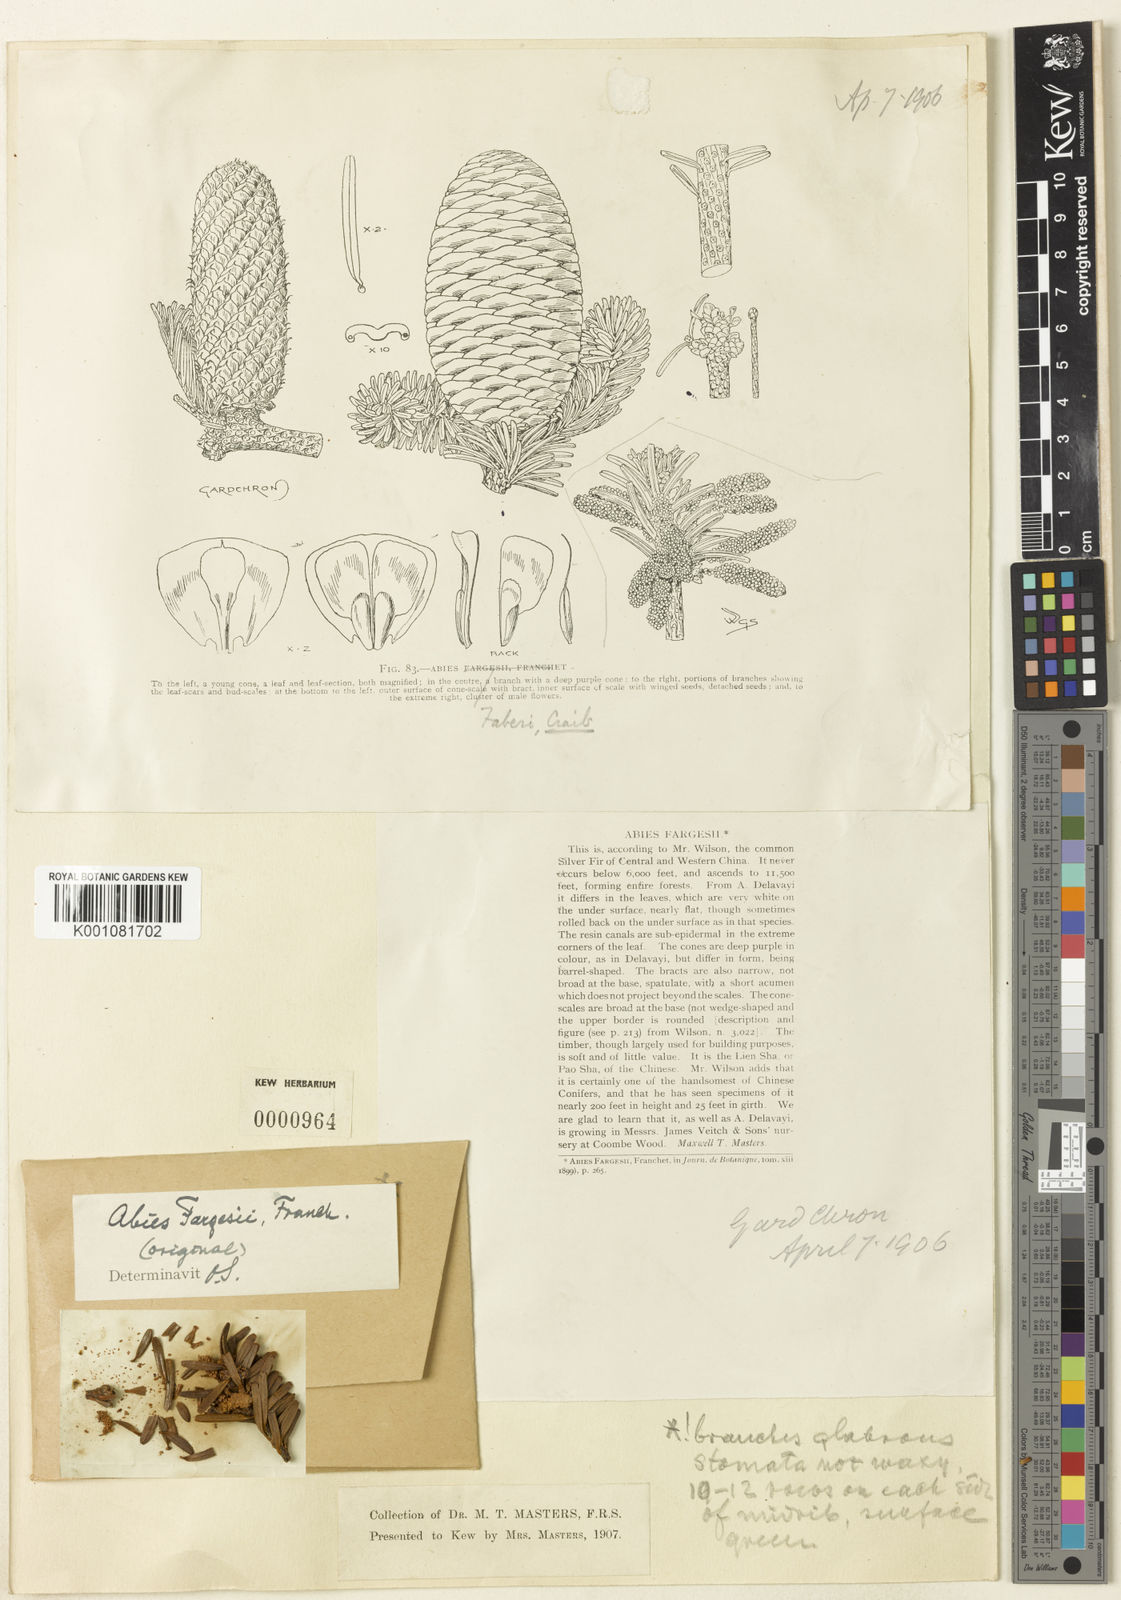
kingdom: Plantae
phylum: Tracheophyta
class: Pinopsida
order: Pinales
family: Pinaceae
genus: Abies
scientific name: Abies fargesii
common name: Farges' fir
